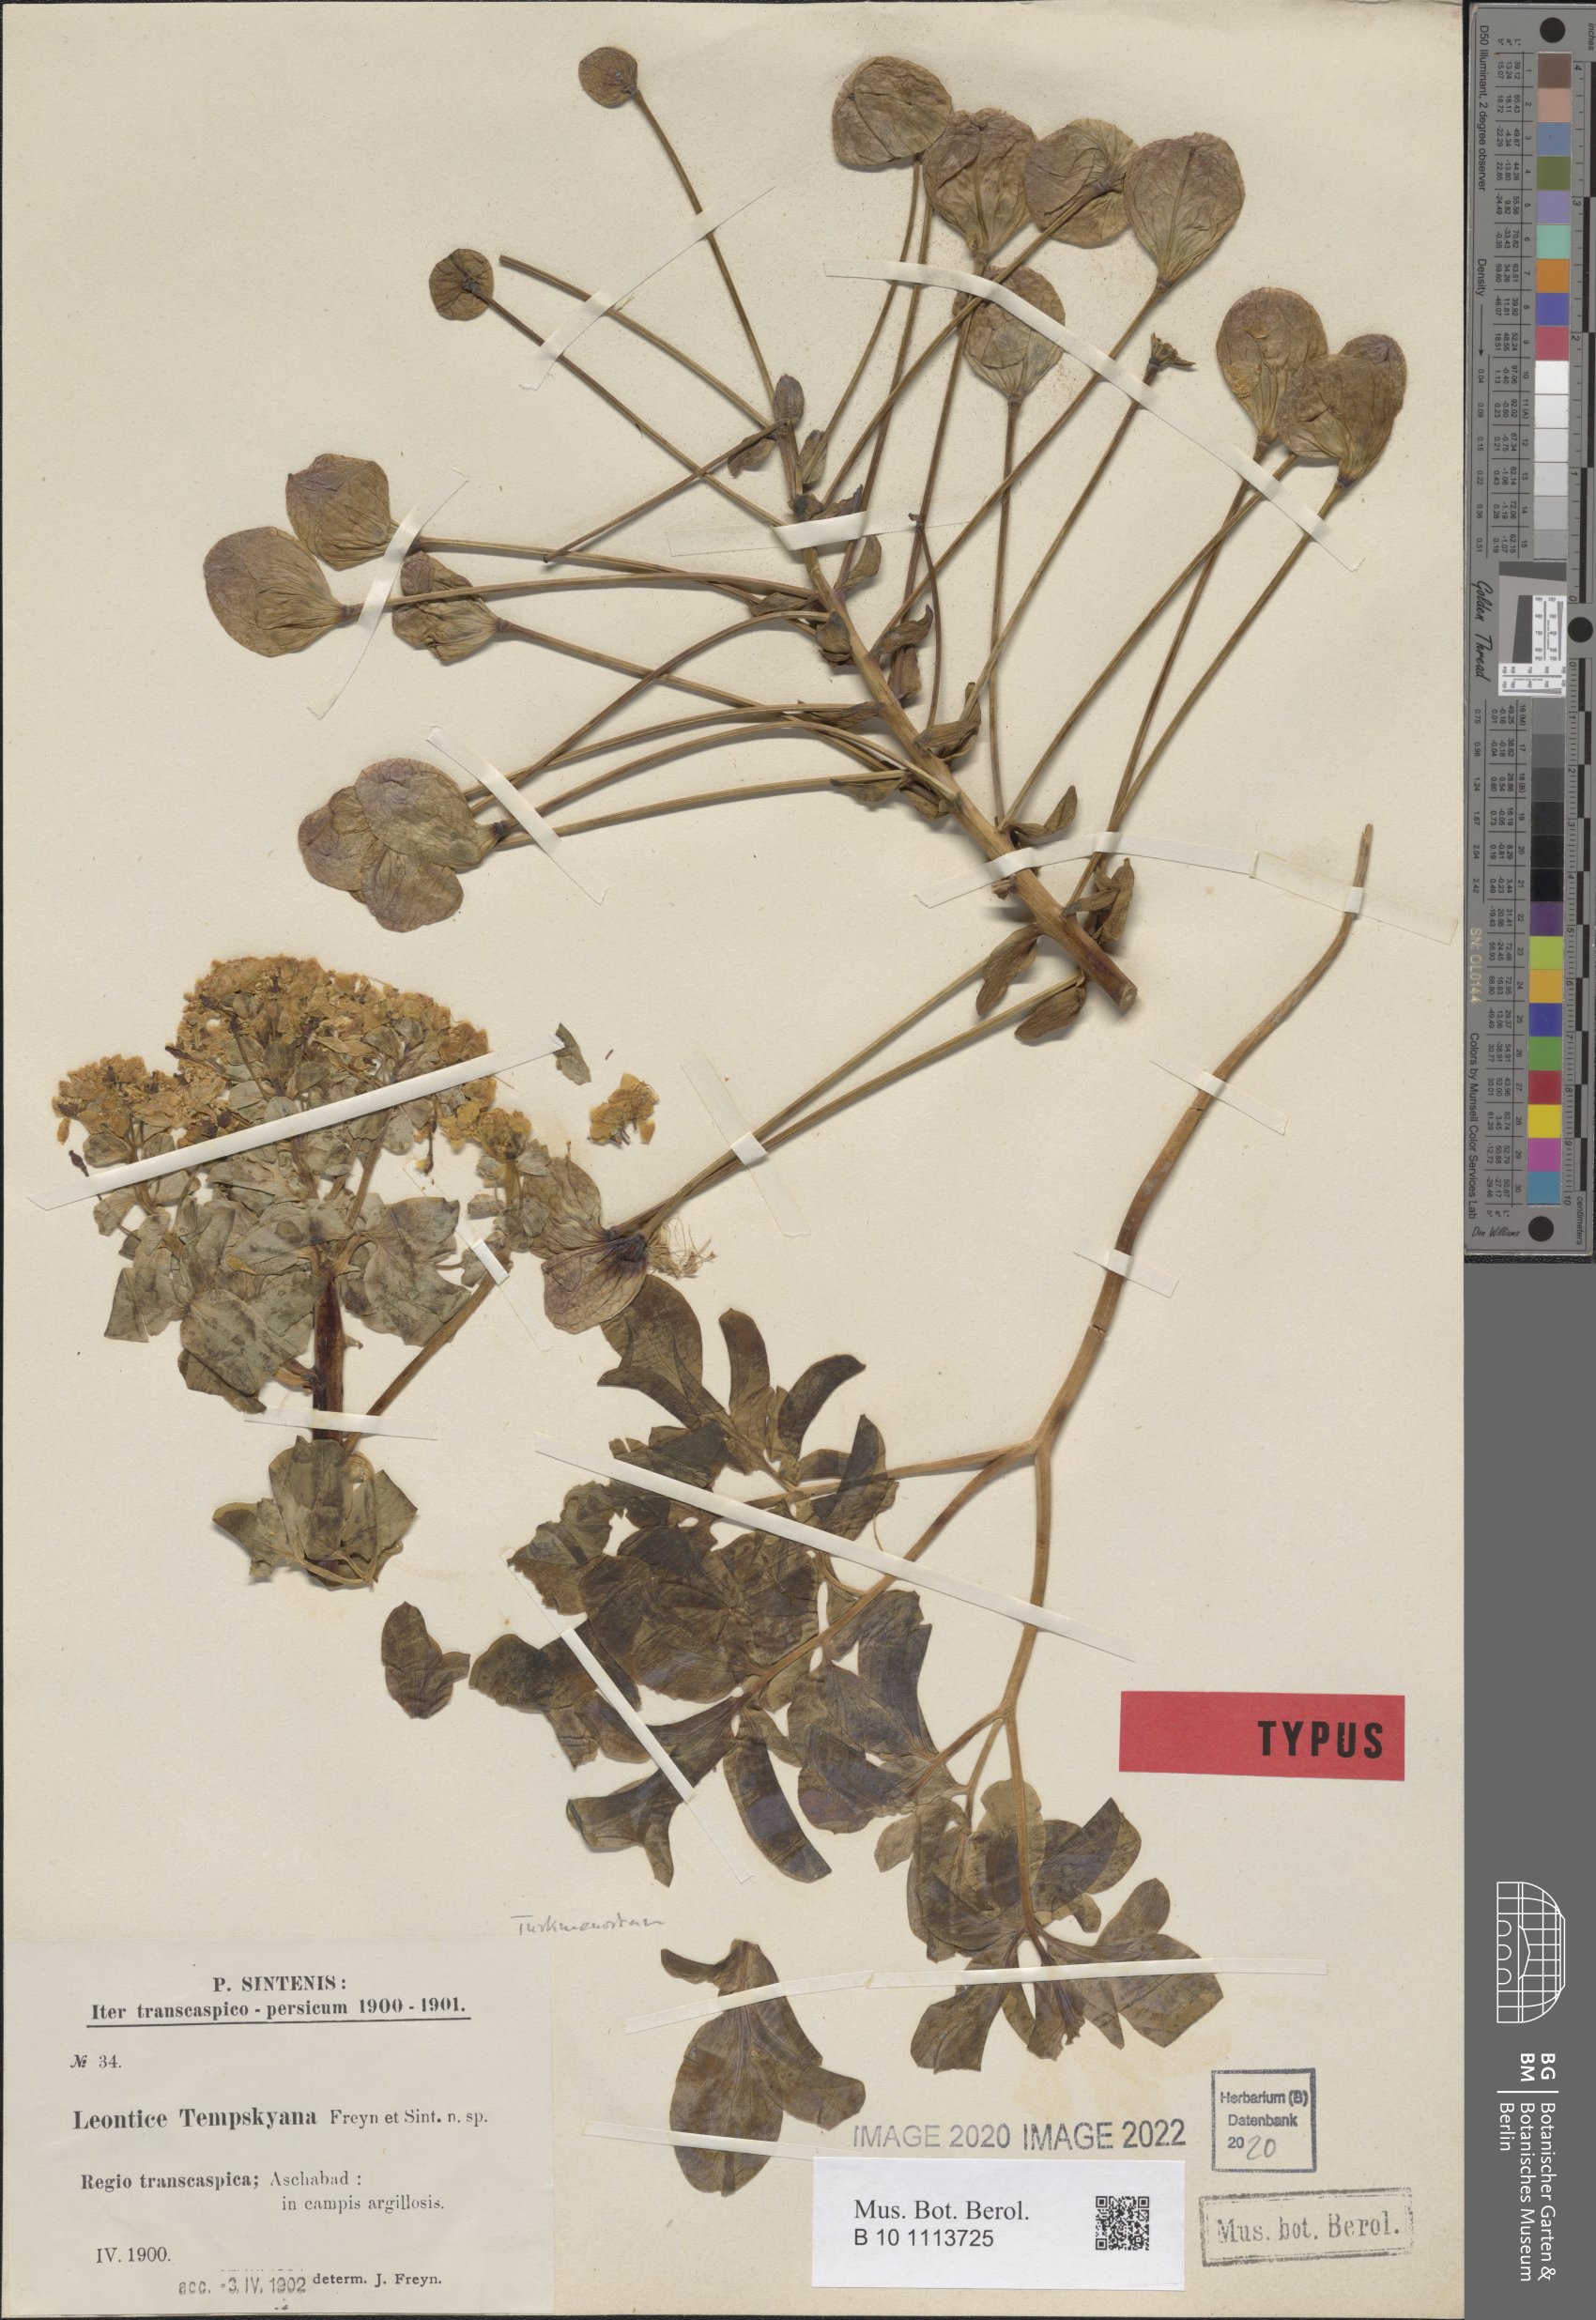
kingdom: Plantae
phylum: Tracheophyta
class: Magnoliopsida
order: Ranunculales
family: Berberidaceae
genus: Leontice
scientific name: Leontice tempskyana
